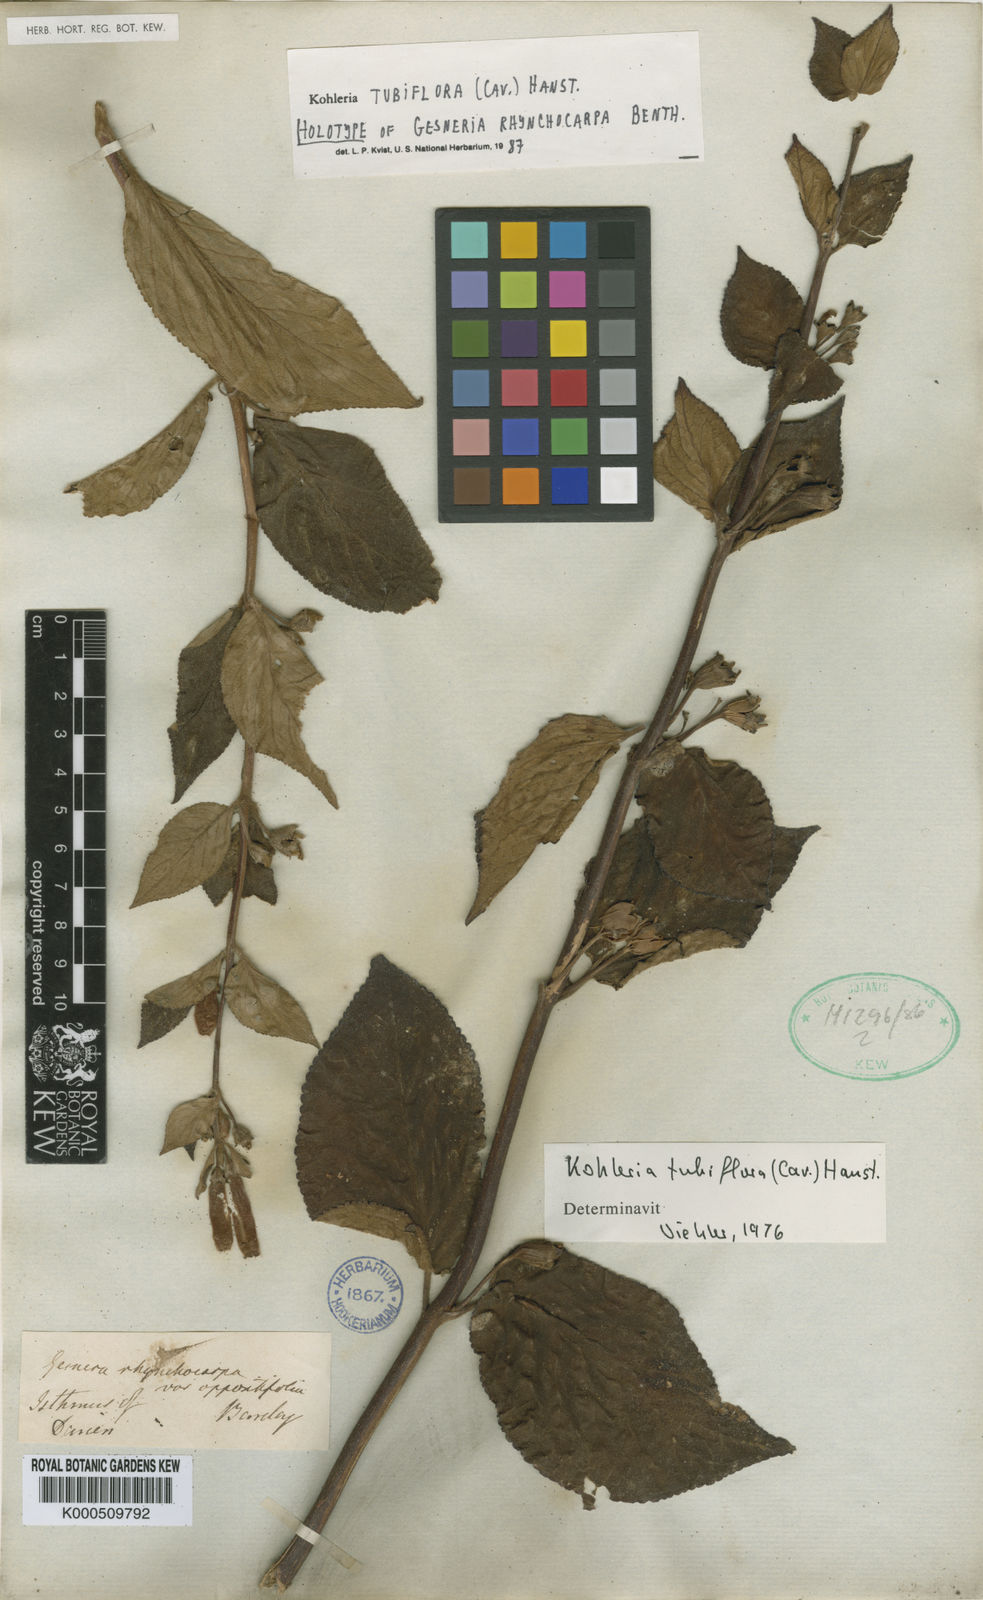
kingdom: Plantae
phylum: Tracheophyta
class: Magnoliopsida
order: Lamiales
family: Gesneriaceae
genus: Kohleria
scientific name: Kohleria
